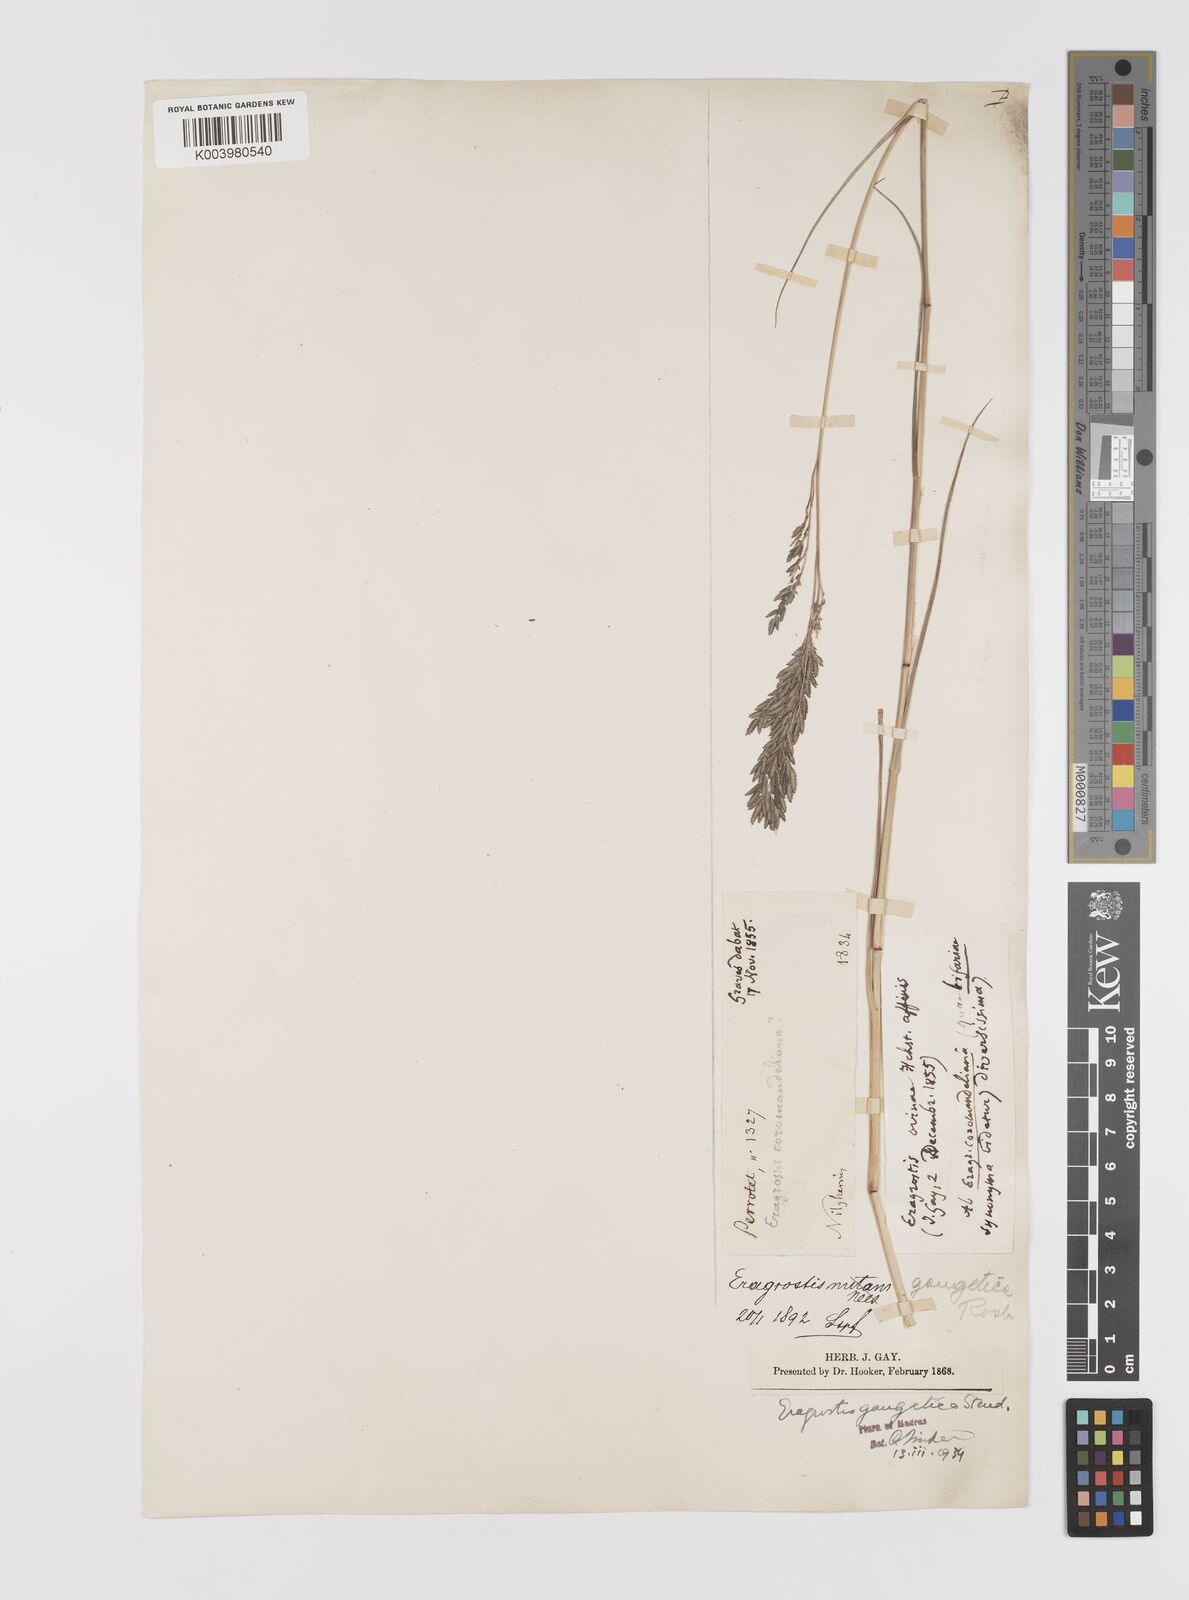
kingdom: Plantae
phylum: Tracheophyta
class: Liliopsida
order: Poales
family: Poaceae
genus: Eragrostis
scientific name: Eragrostis
